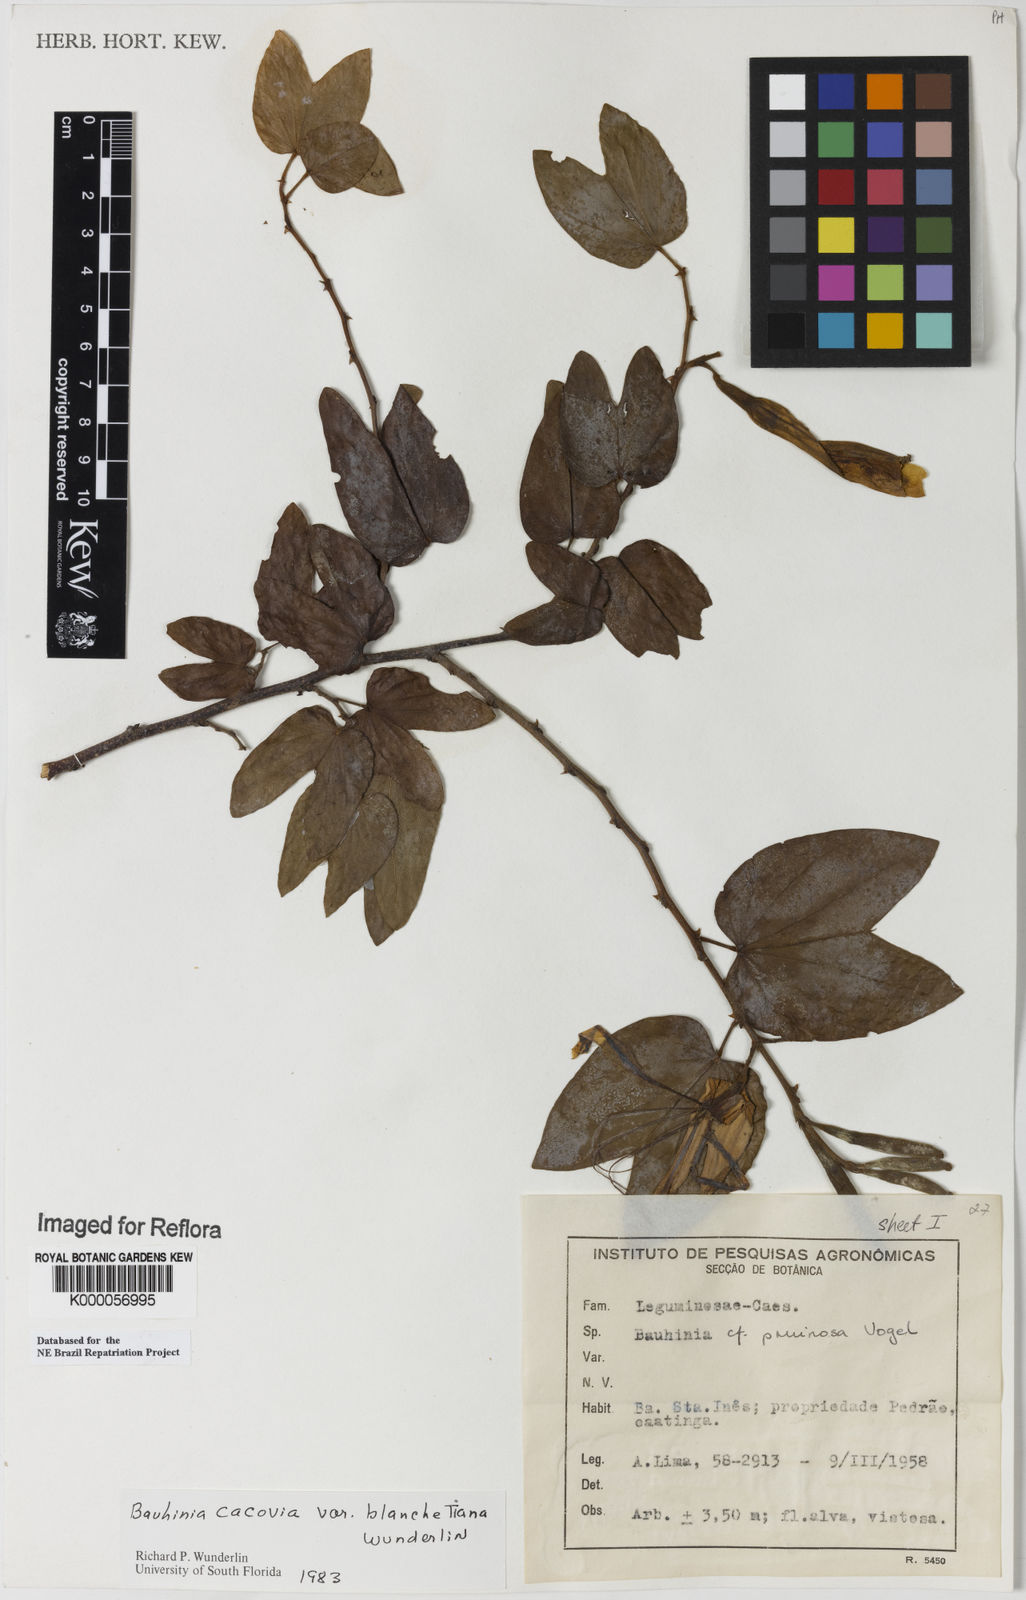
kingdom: Plantae
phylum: Tracheophyta
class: Magnoliopsida
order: Fabales
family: Fabaceae
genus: Bauhinia
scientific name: Bauhinia
